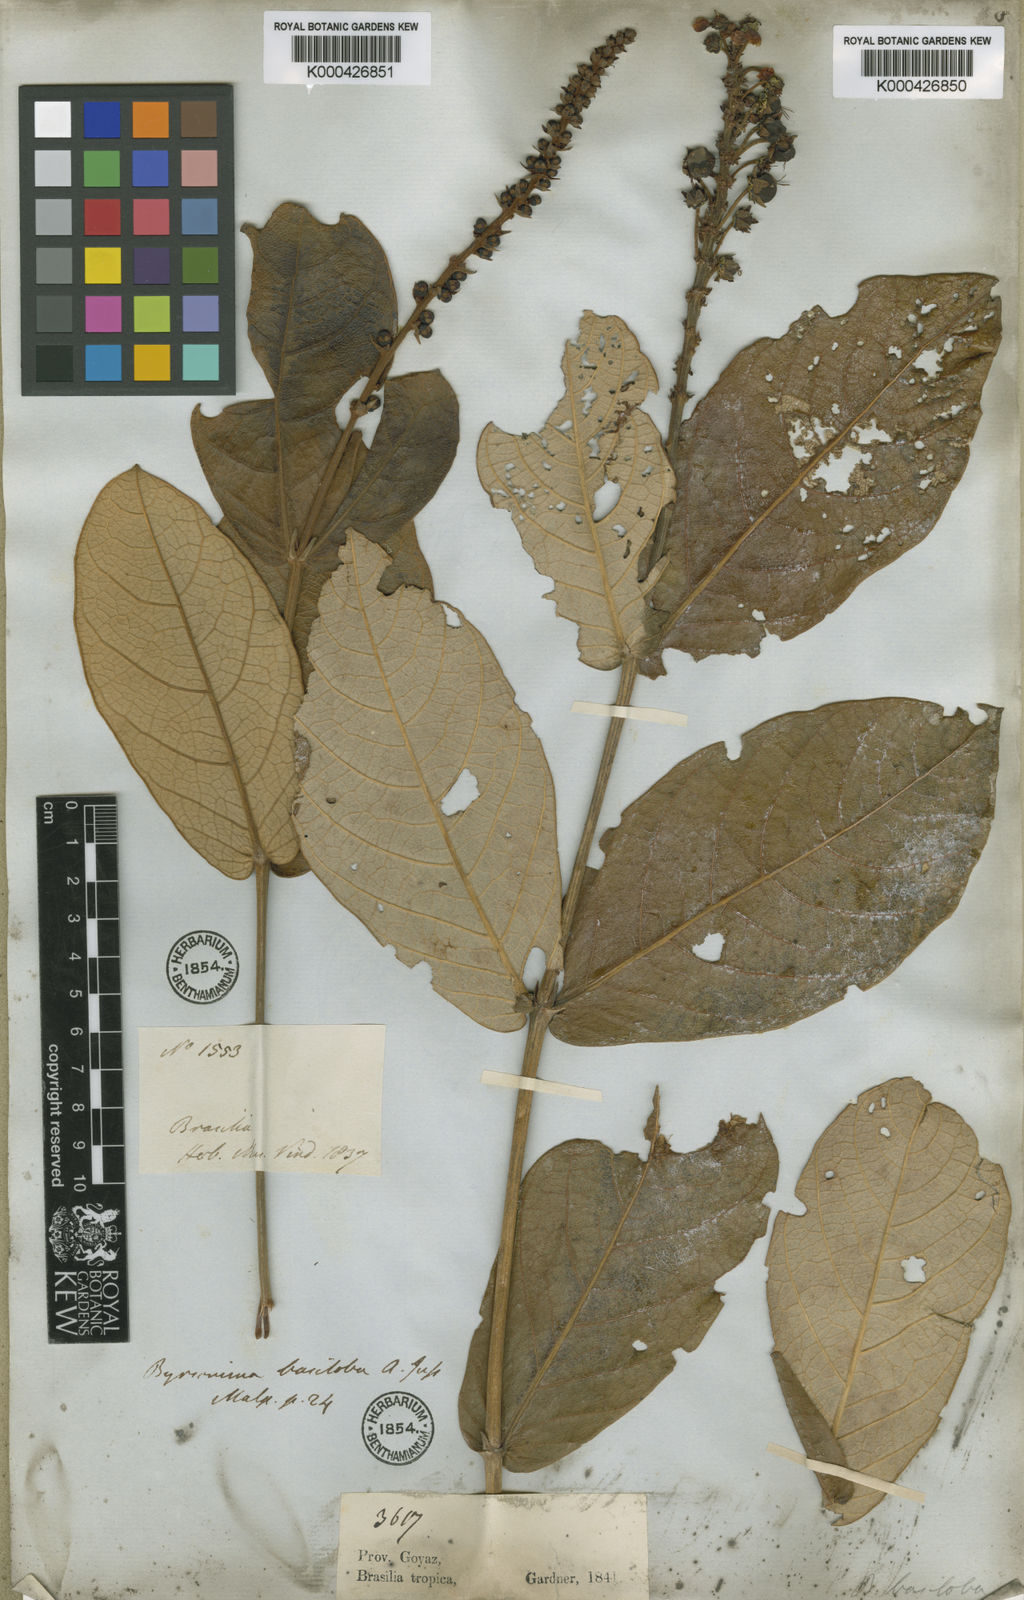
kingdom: Plantae
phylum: Tracheophyta
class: Magnoliopsida
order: Malpighiales
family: Malpighiaceae
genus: Byrsonima
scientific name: Byrsonima basiloba
